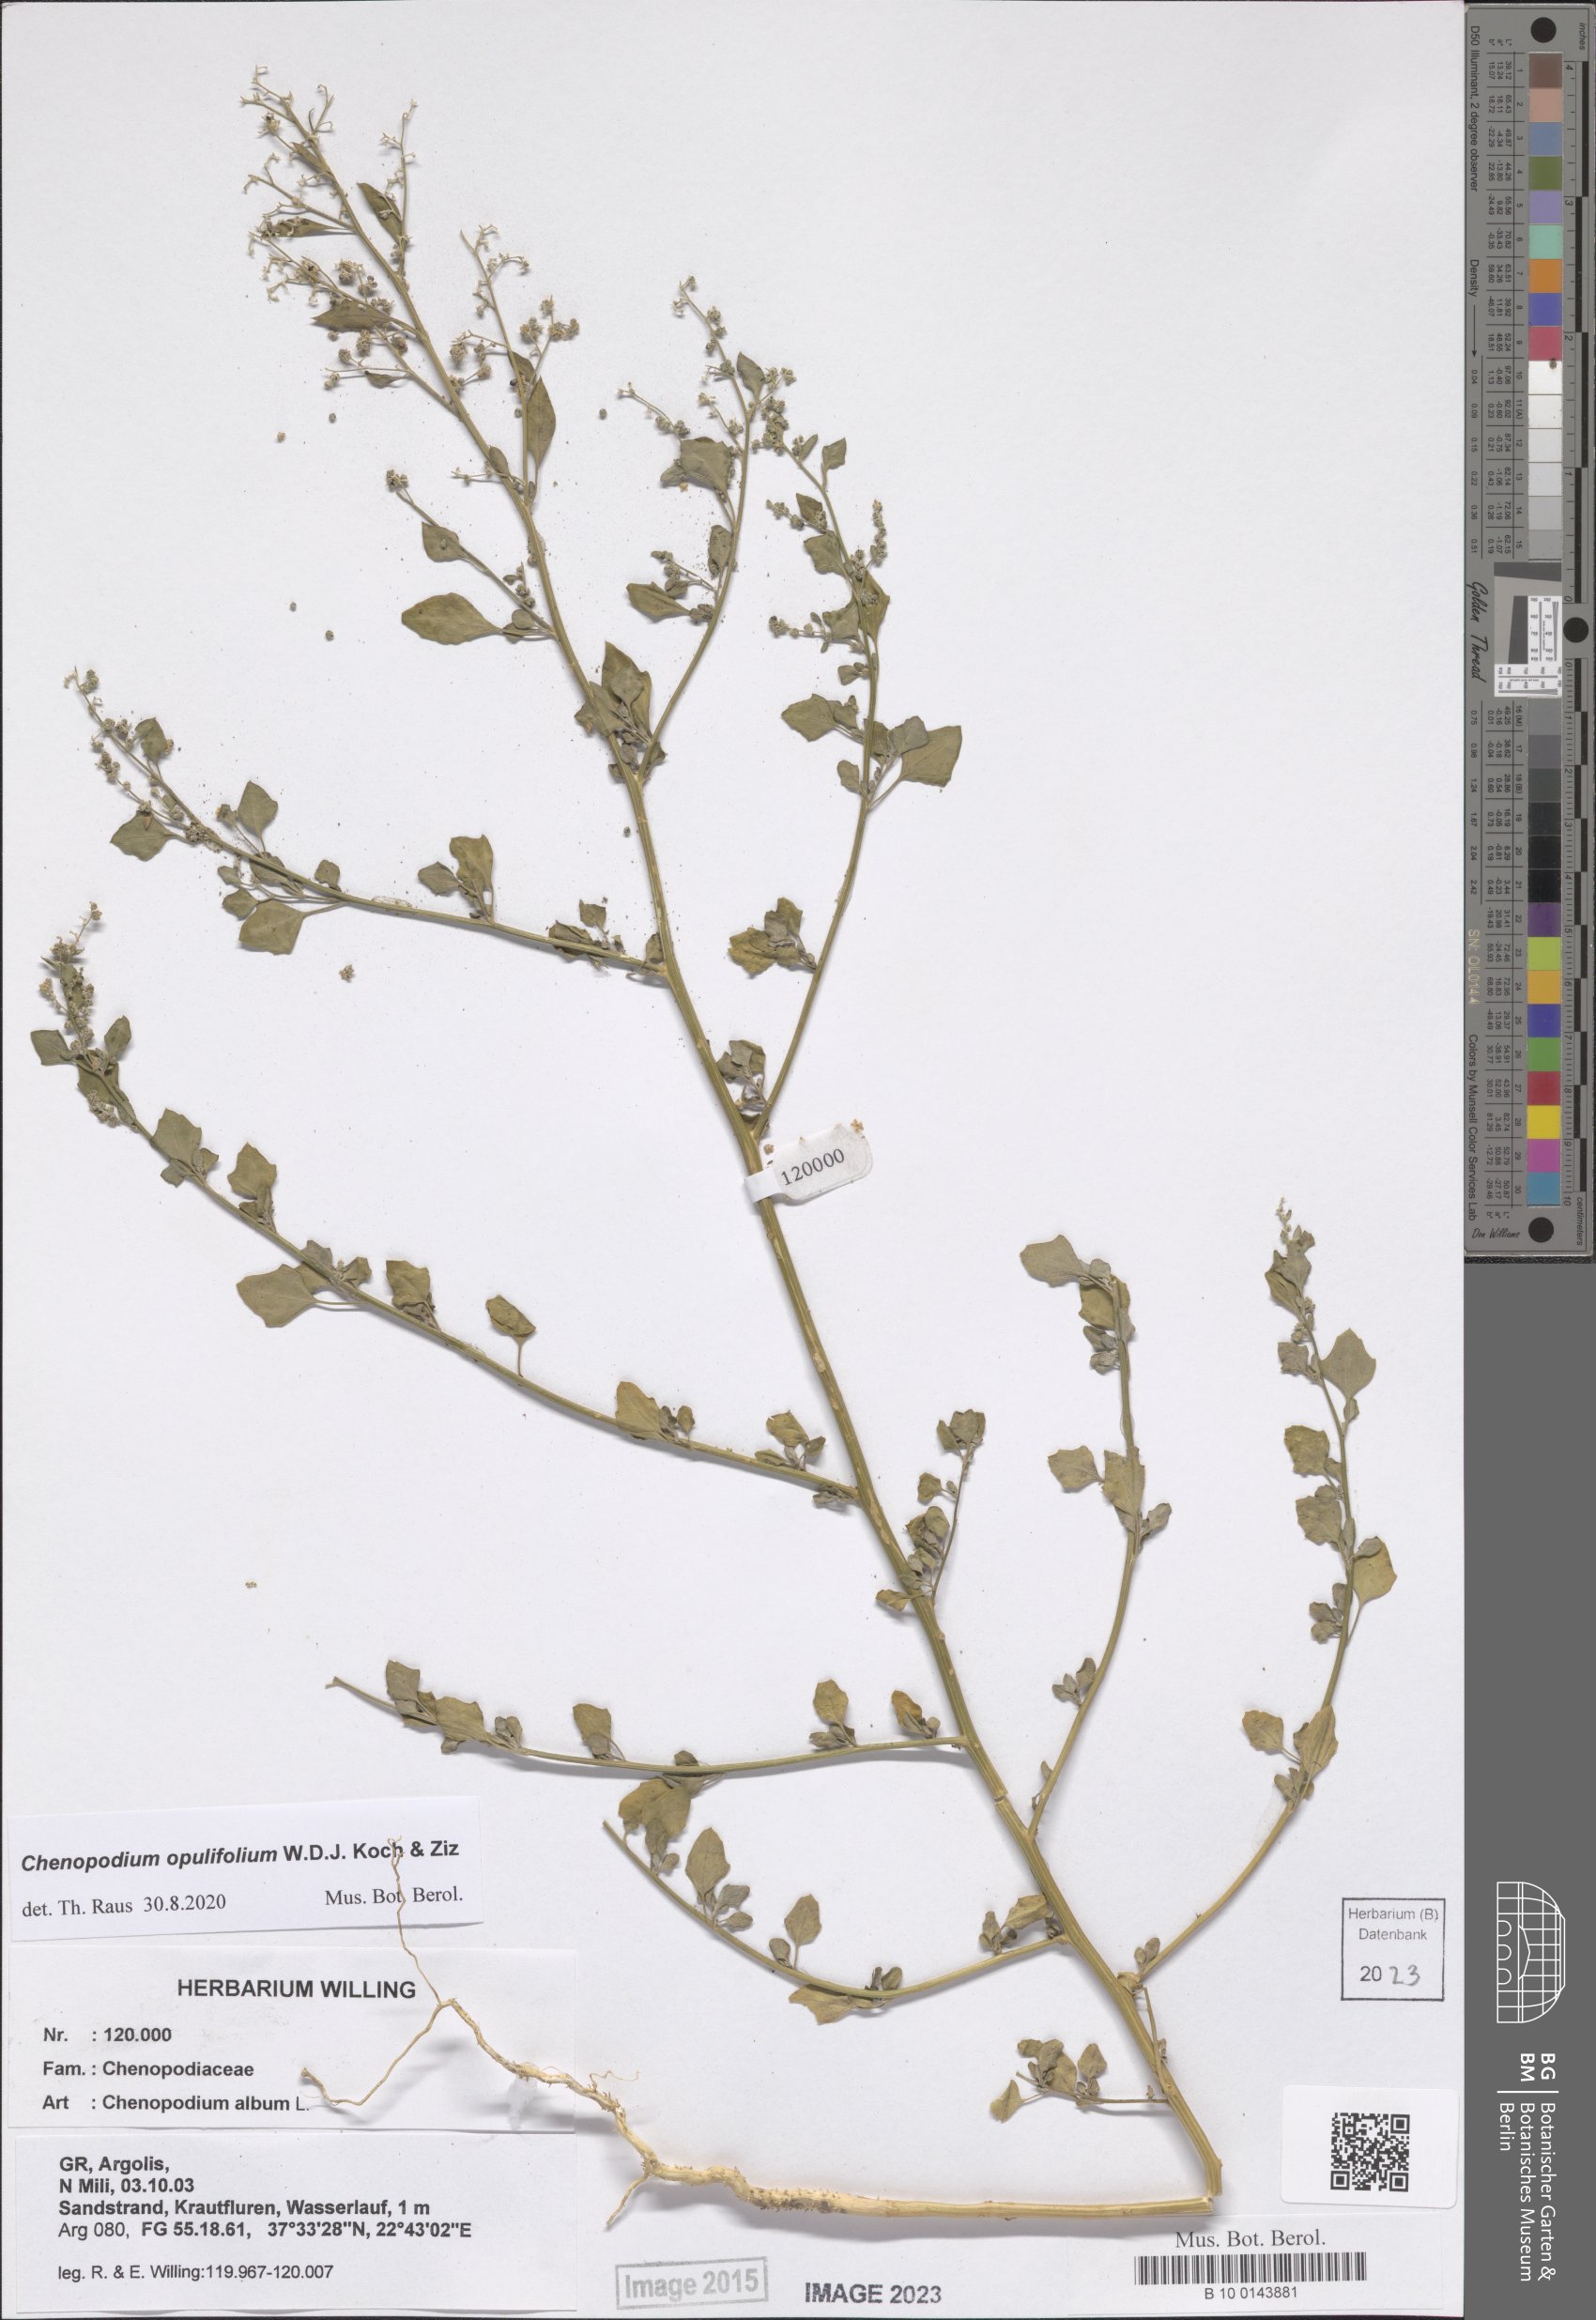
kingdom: Plantae
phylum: Tracheophyta
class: Magnoliopsida
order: Caryophyllales
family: Amaranthaceae
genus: Chenopodium
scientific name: Chenopodium opulifolium
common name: Grey goosefoot
